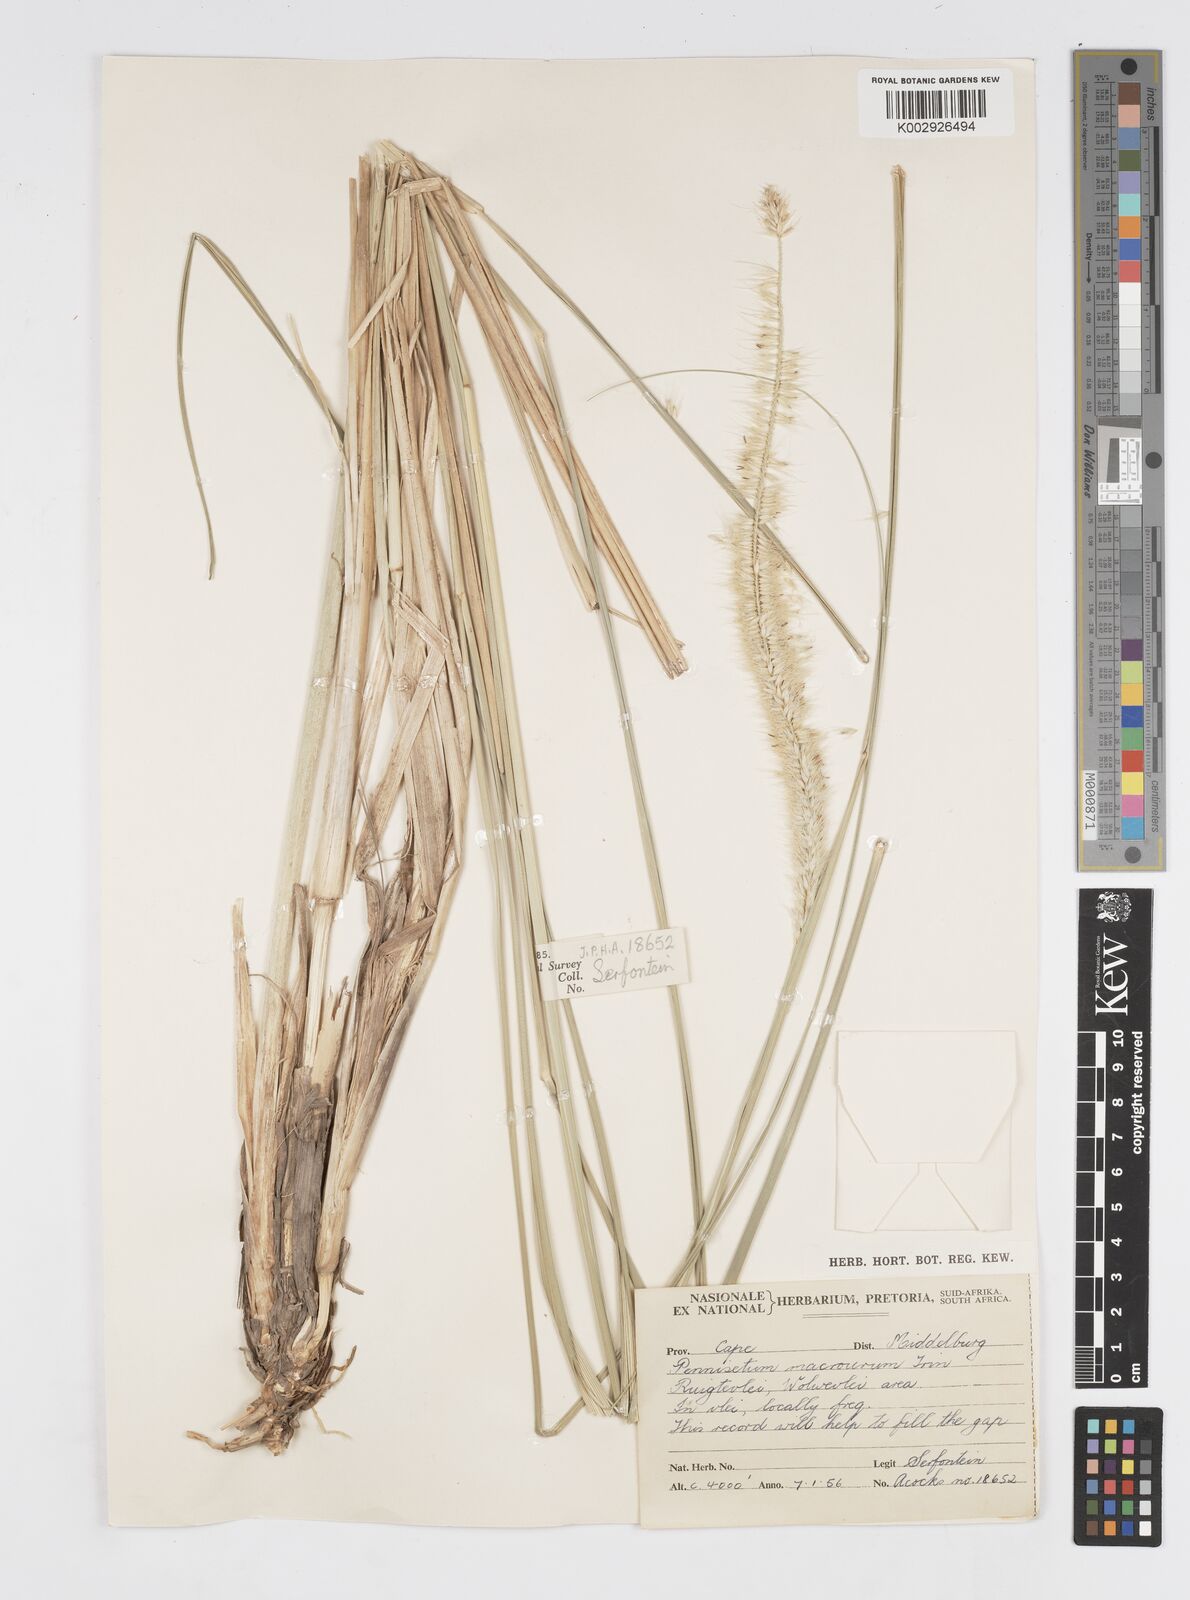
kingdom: Plantae
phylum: Tracheophyta
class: Liliopsida
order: Poales
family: Poaceae
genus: Cenchrus
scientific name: Cenchrus caudatus
